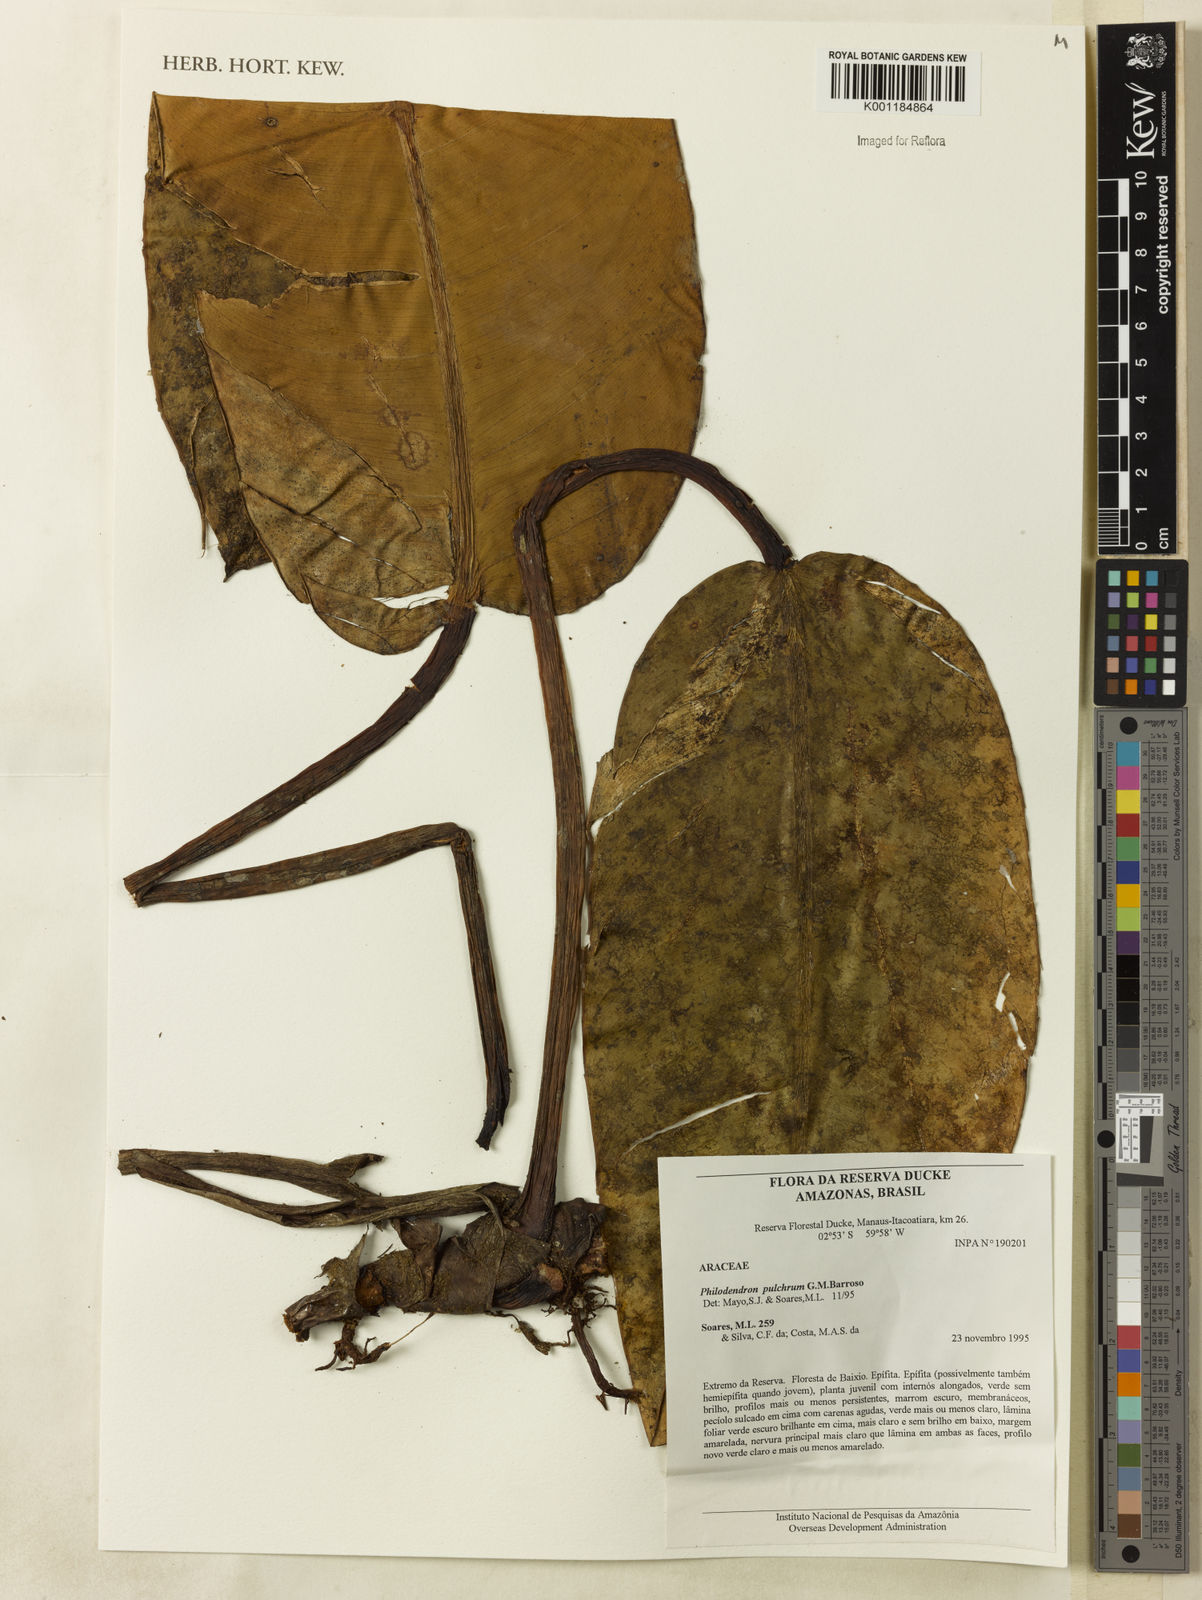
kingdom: Plantae
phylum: Tracheophyta
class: Liliopsida
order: Alismatales
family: Araceae
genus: Philodendron
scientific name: Philodendron pulchrum
